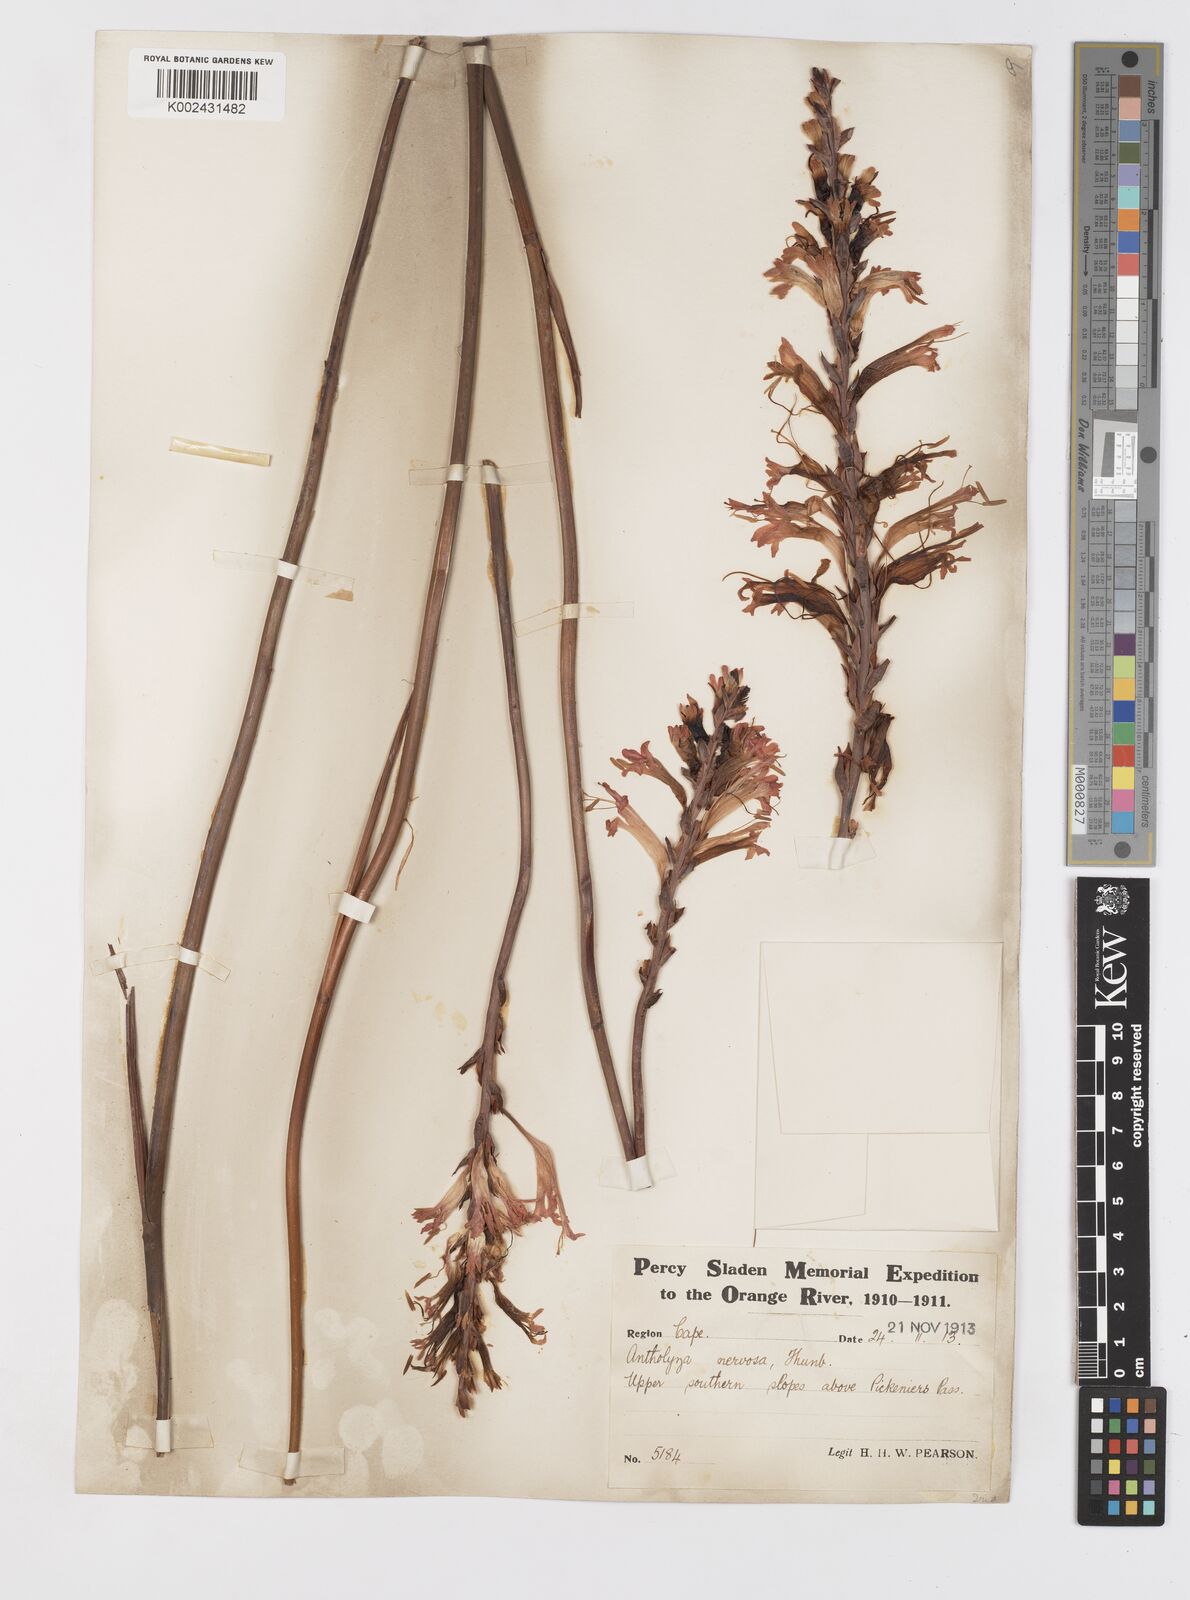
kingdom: Plantae
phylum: Tracheophyta
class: Liliopsida
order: Asparagales
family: Iridaceae
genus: Tritoniopsis
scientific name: Tritoniopsis nervosa
